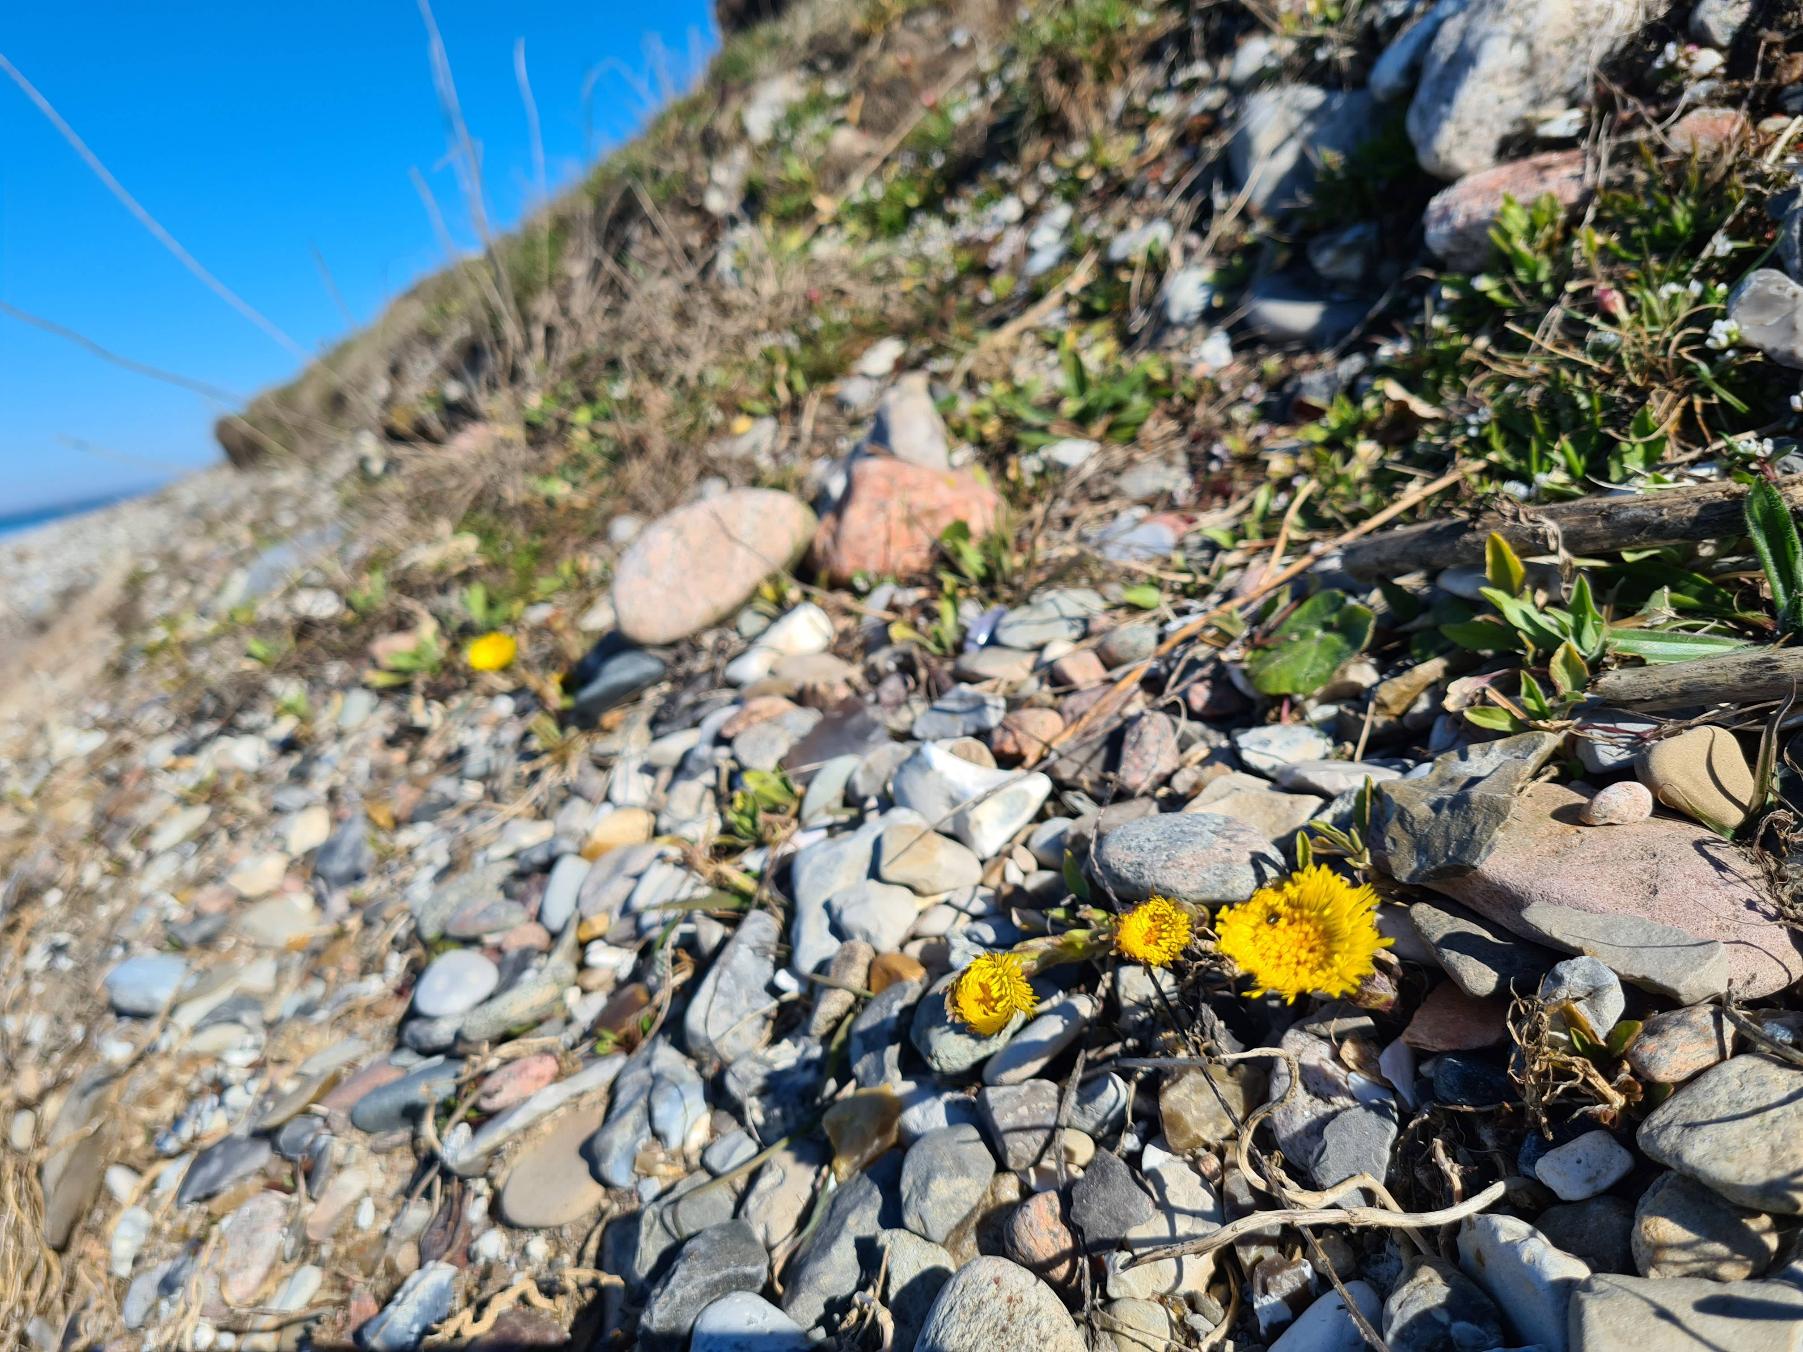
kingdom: Plantae
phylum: Tracheophyta
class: Magnoliopsida
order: Asterales
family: Asteraceae
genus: Tussilago
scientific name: Tussilago farfara
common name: Følfod
